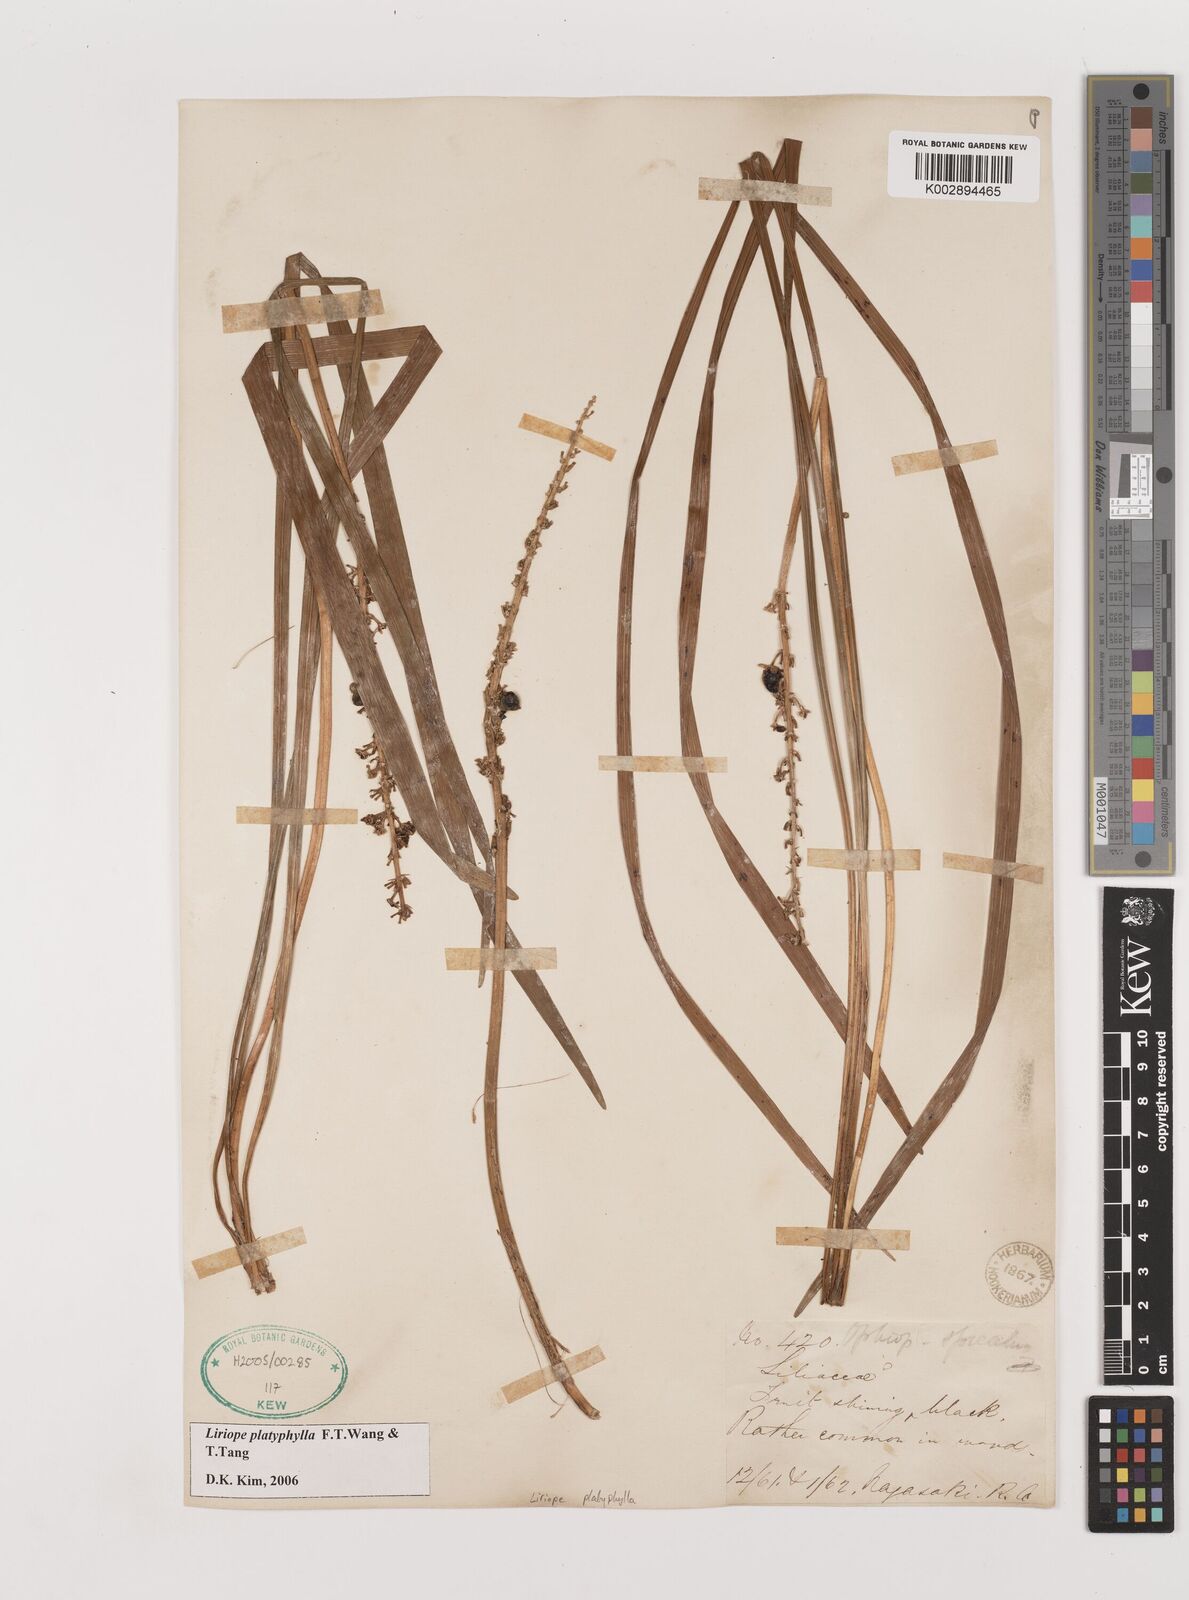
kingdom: Plantae
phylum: Tracheophyta
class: Liliopsida
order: Asparagales
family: Asparagaceae
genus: Liriope
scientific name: Liriope muscari
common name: Big blue lilyturf
